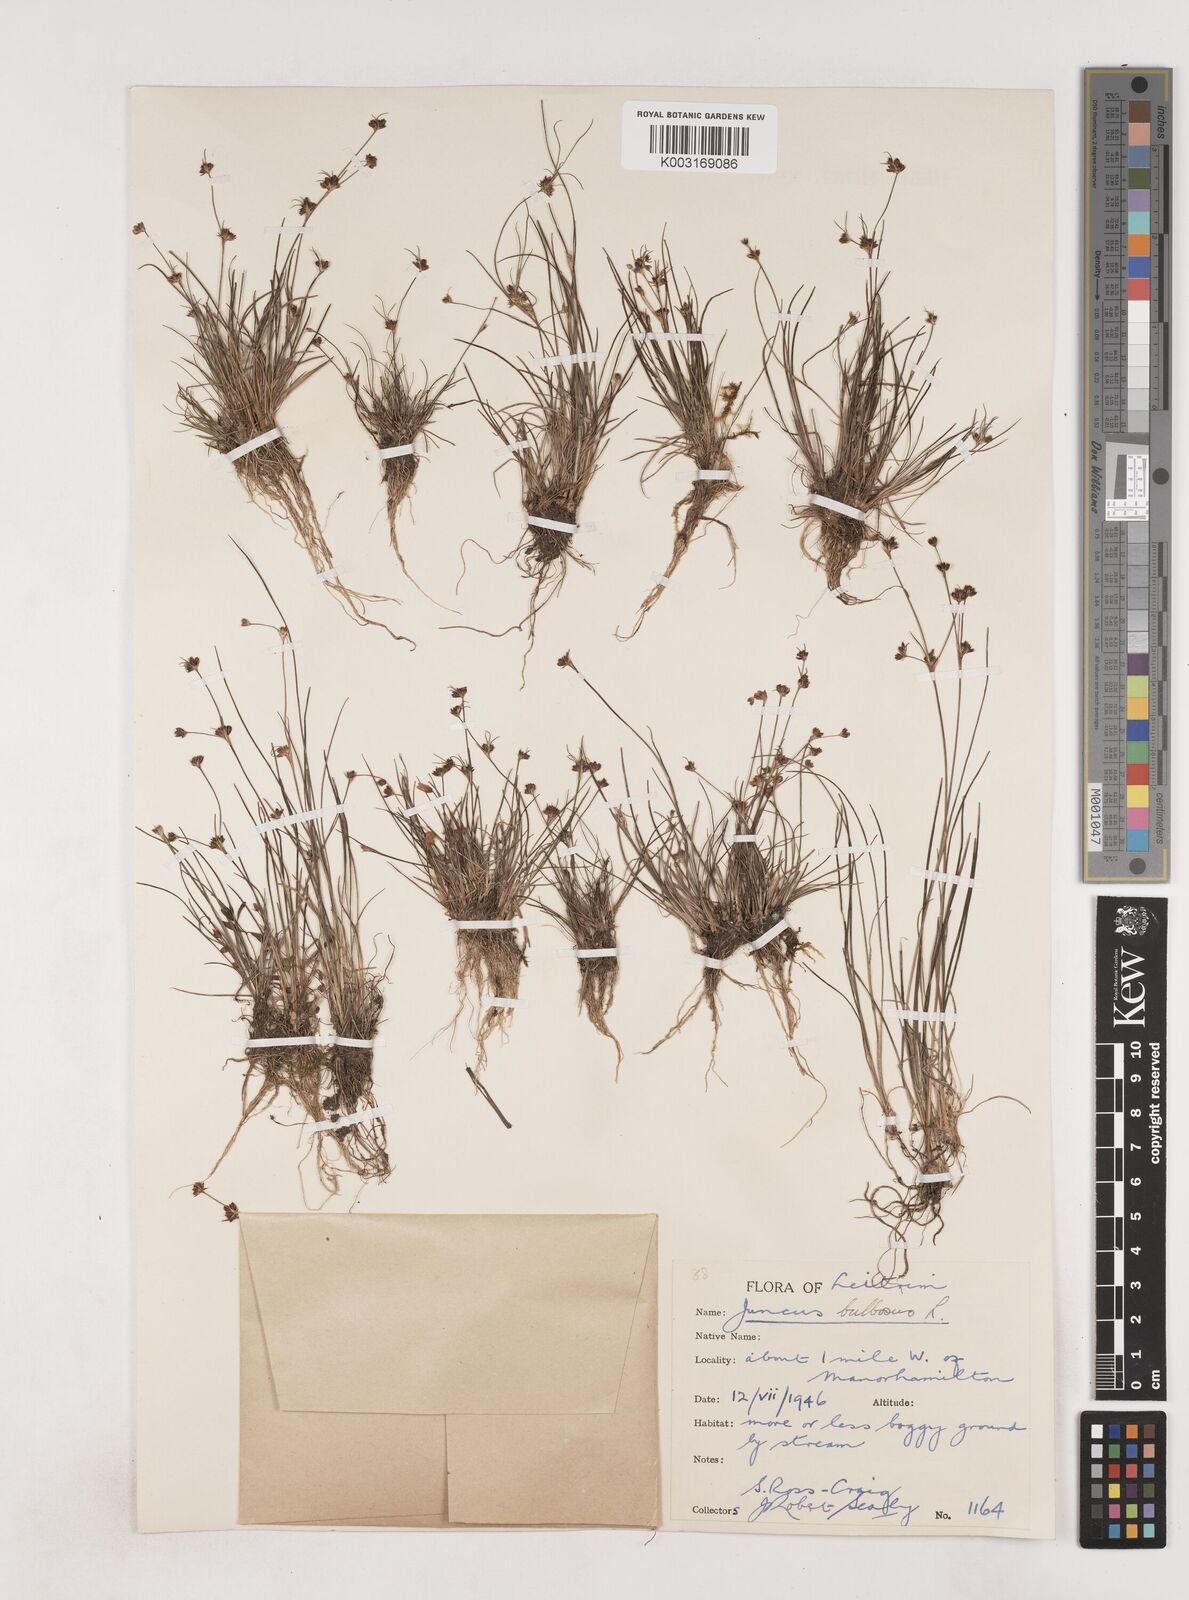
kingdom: Plantae
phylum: Tracheophyta
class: Liliopsida
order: Poales
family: Juncaceae
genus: Juncus
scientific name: Juncus bulbosus
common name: Bulbous rush
